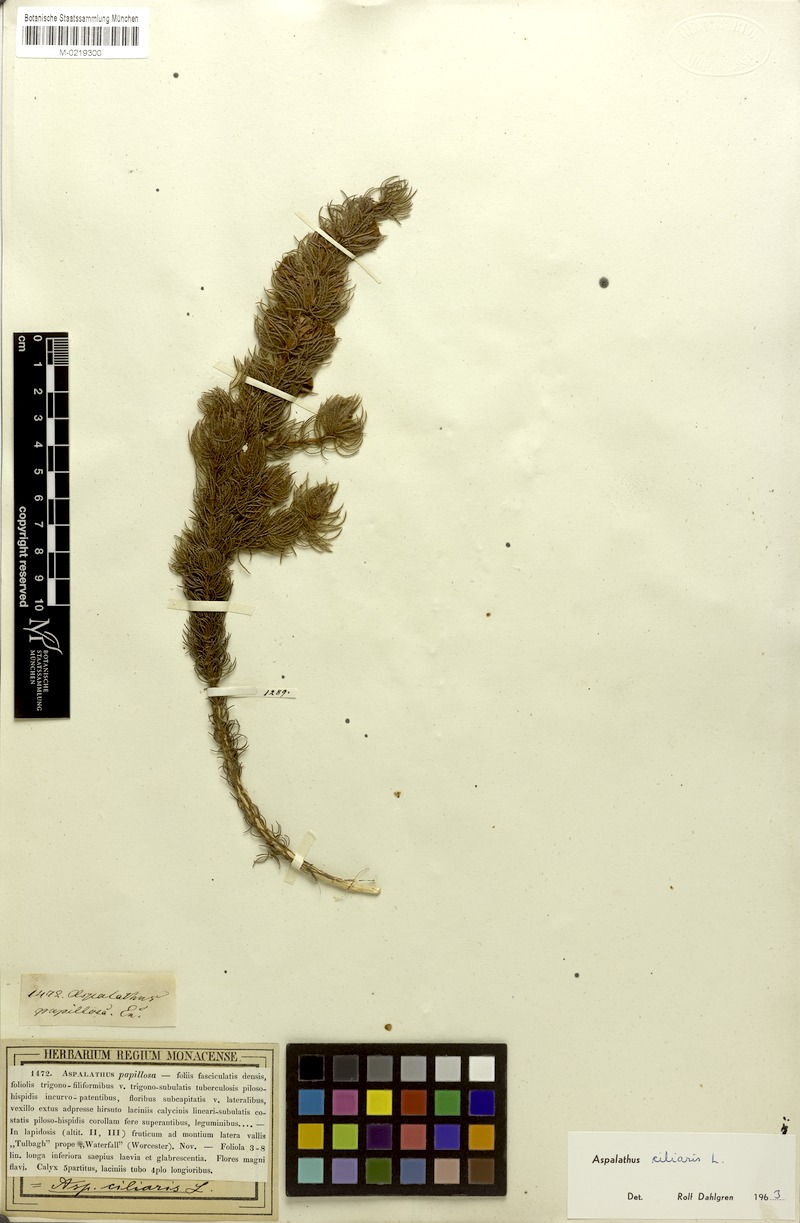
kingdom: Plantae
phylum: Tracheophyta
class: Magnoliopsida
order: Fabales
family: Fabaceae
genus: Aspalathus
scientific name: Aspalathus ciliaris
